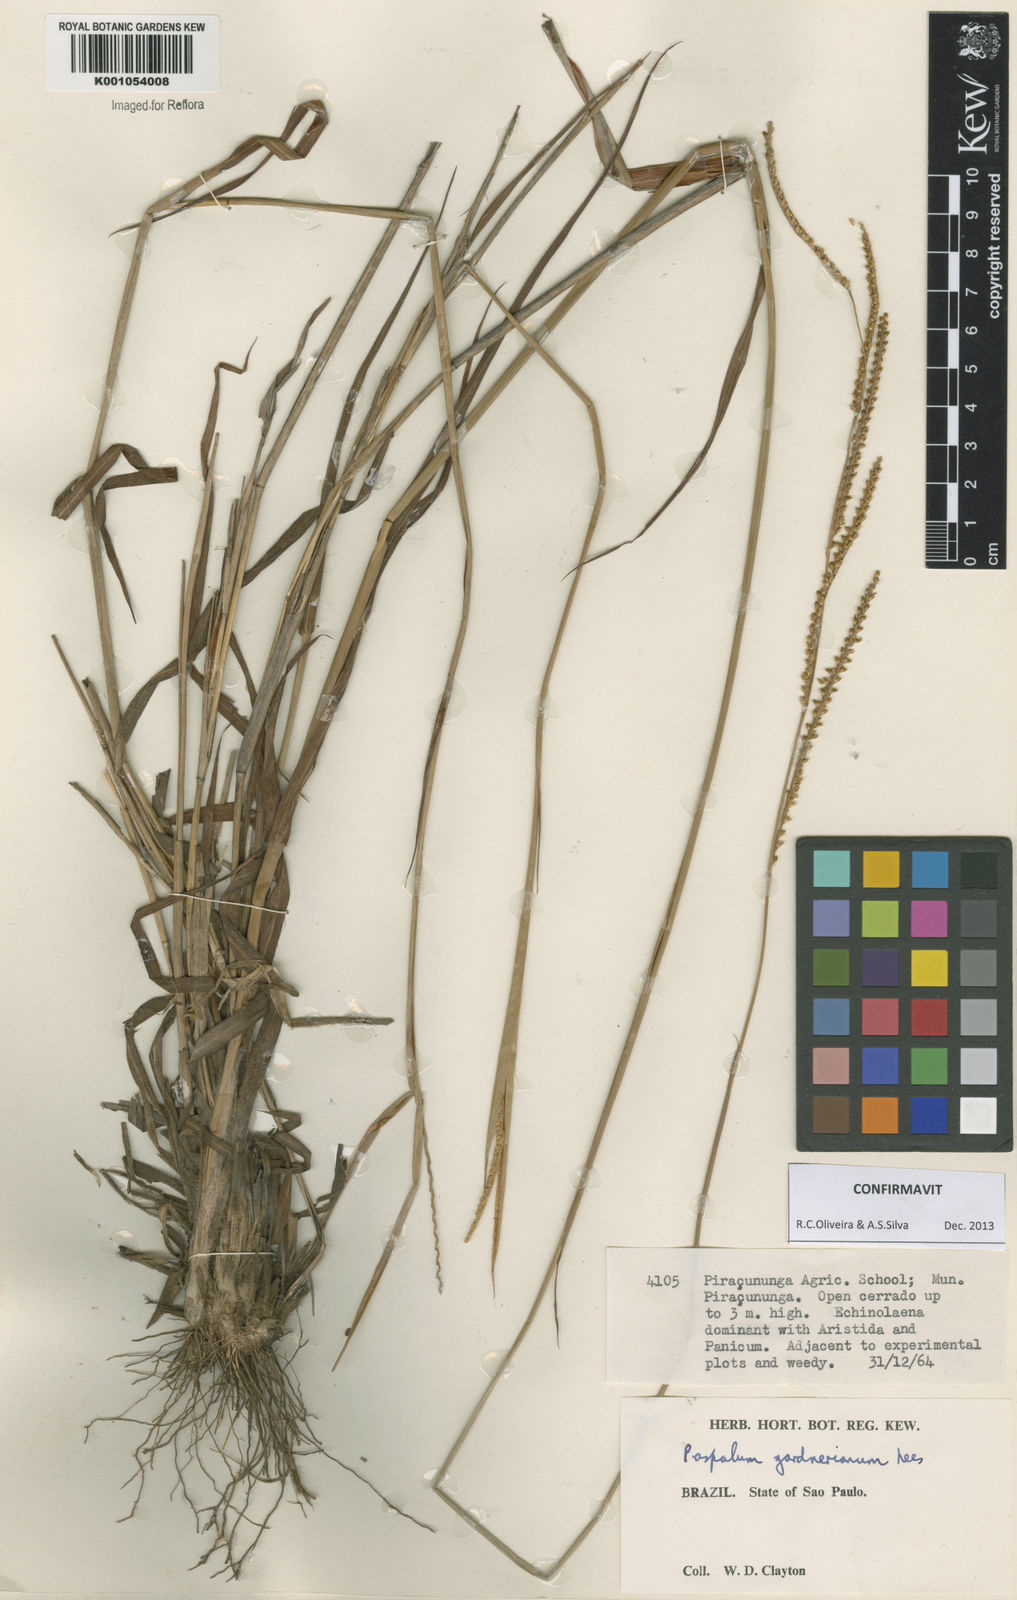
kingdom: Plantae
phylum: Tracheophyta
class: Liliopsida
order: Poales
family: Poaceae
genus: Paspalum
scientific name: Paspalum gardnerianum
